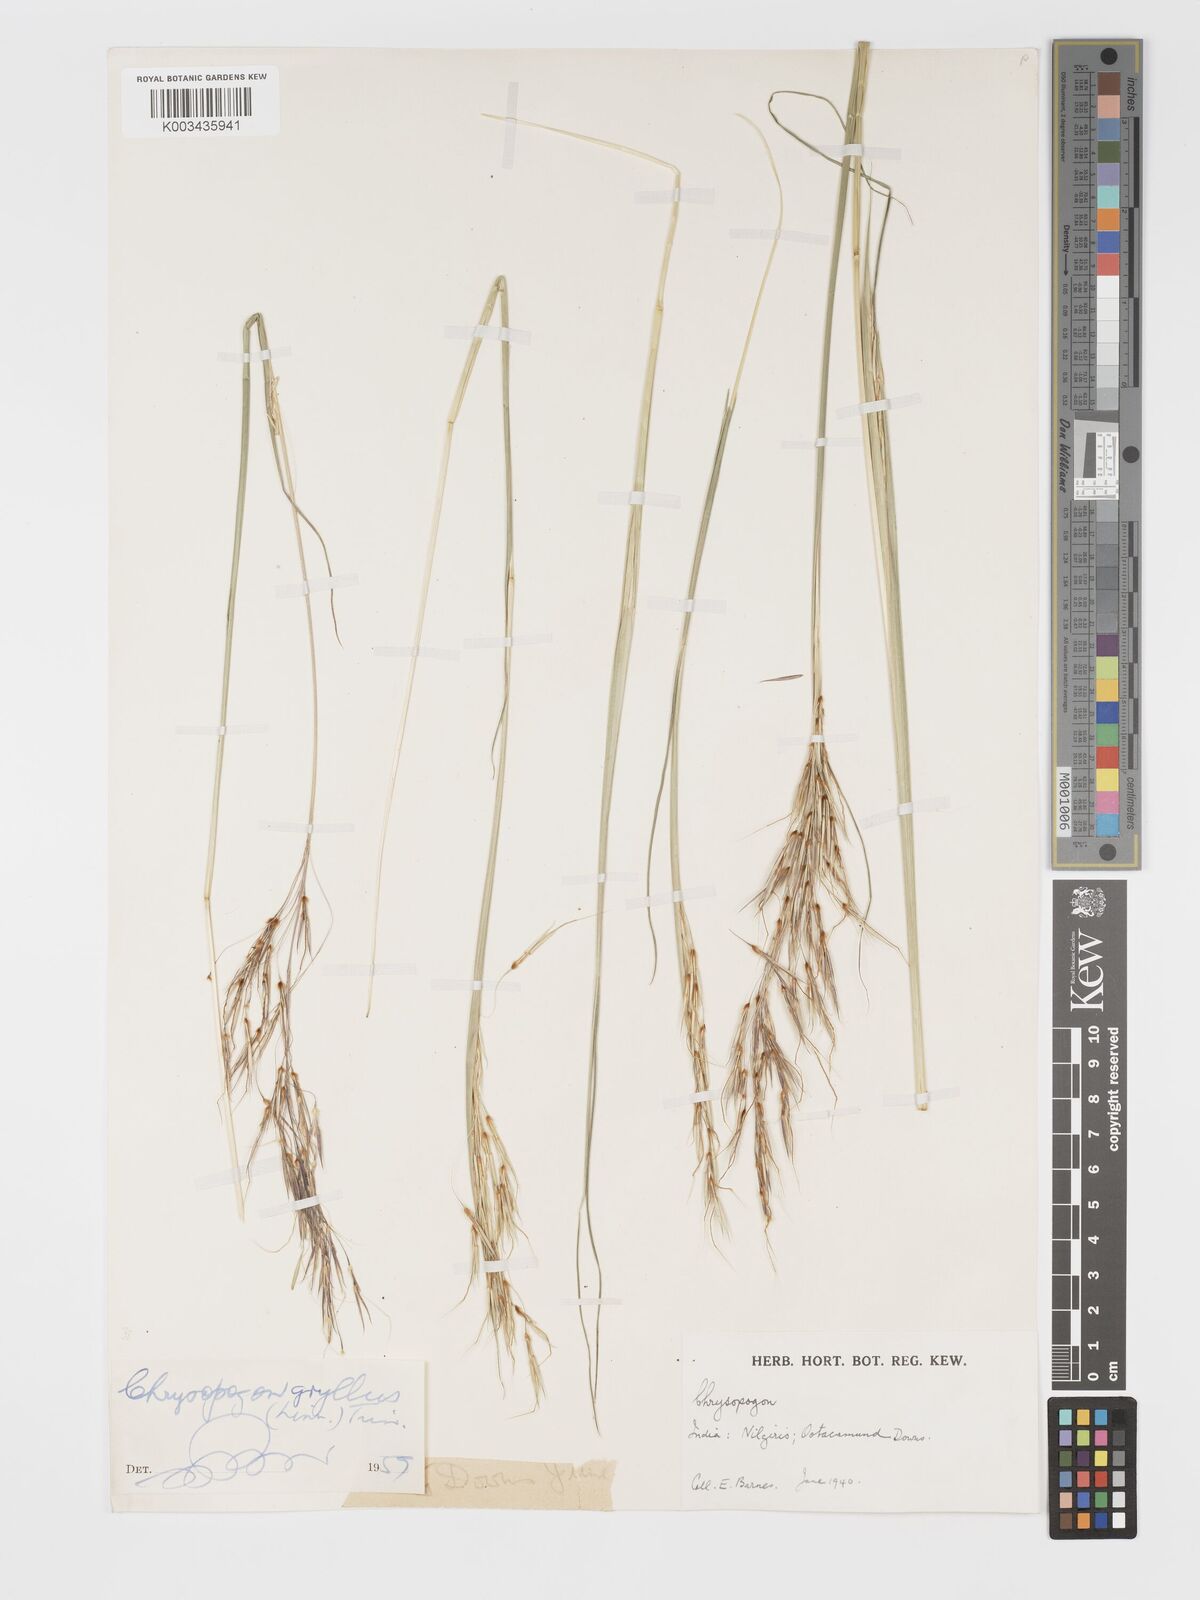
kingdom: Plantae
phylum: Tracheophyta
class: Liliopsida
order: Poales
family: Poaceae
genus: Chrysopogon
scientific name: Chrysopogon gryllus
